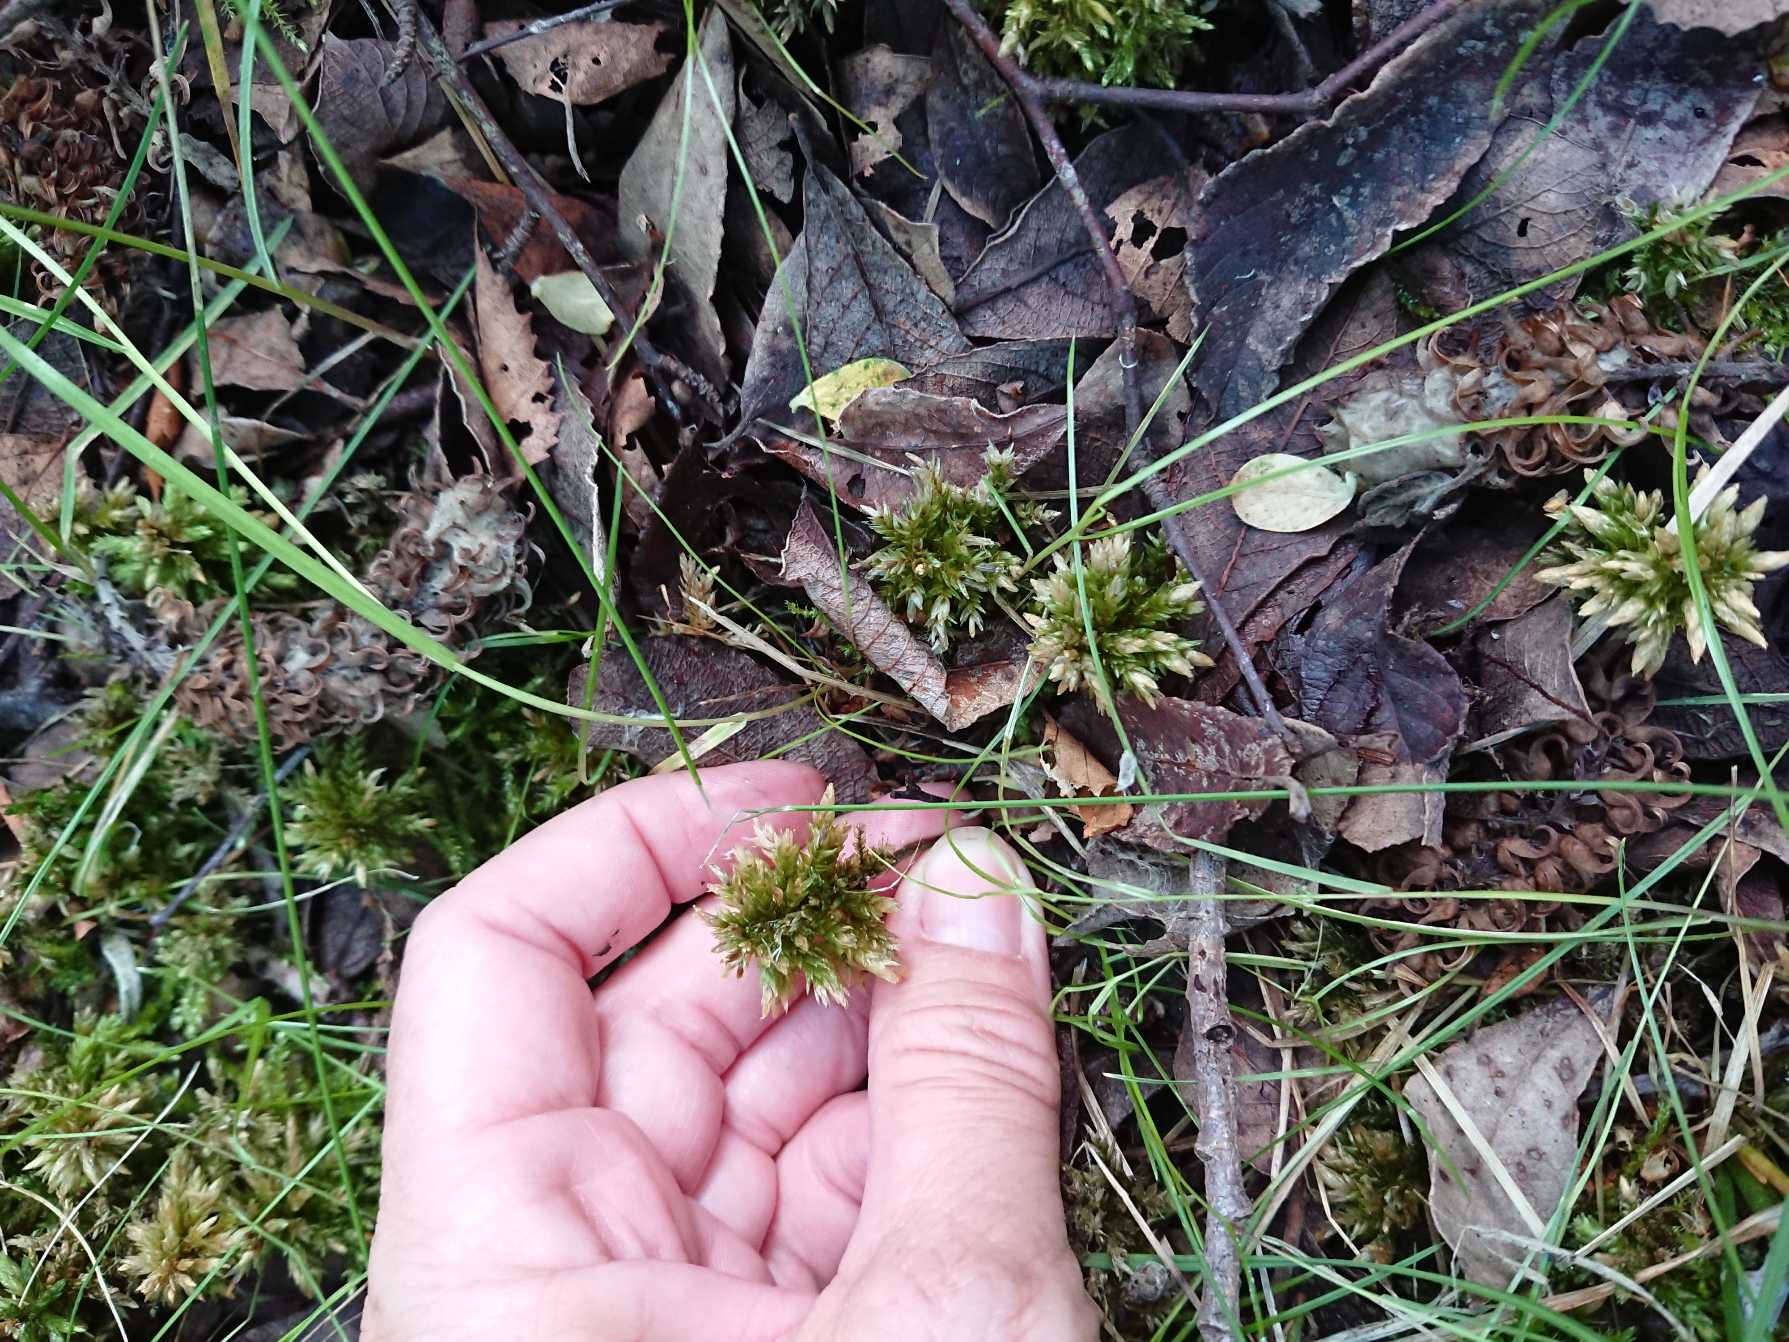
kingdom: Plantae
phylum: Bryophyta
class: Bryopsida
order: Hypnales
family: Climaciaceae
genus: Climacium
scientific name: Climacium dendroides
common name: Stor engkost
